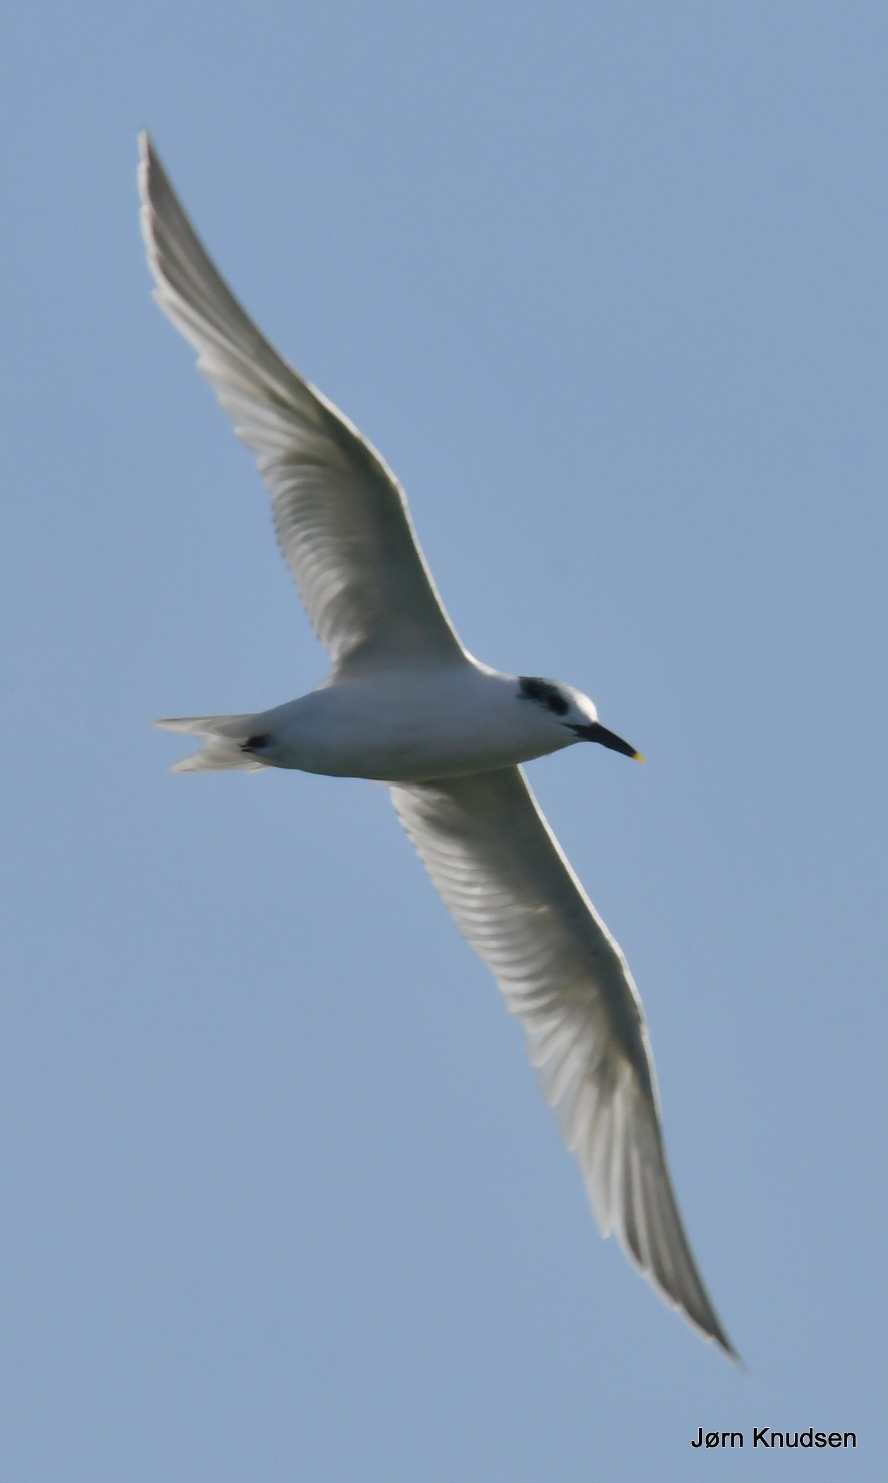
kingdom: Animalia
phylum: Chordata
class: Aves
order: Charadriiformes
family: Laridae
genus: Thalasseus
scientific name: Thalasseus sandvicensis
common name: Splitterne
